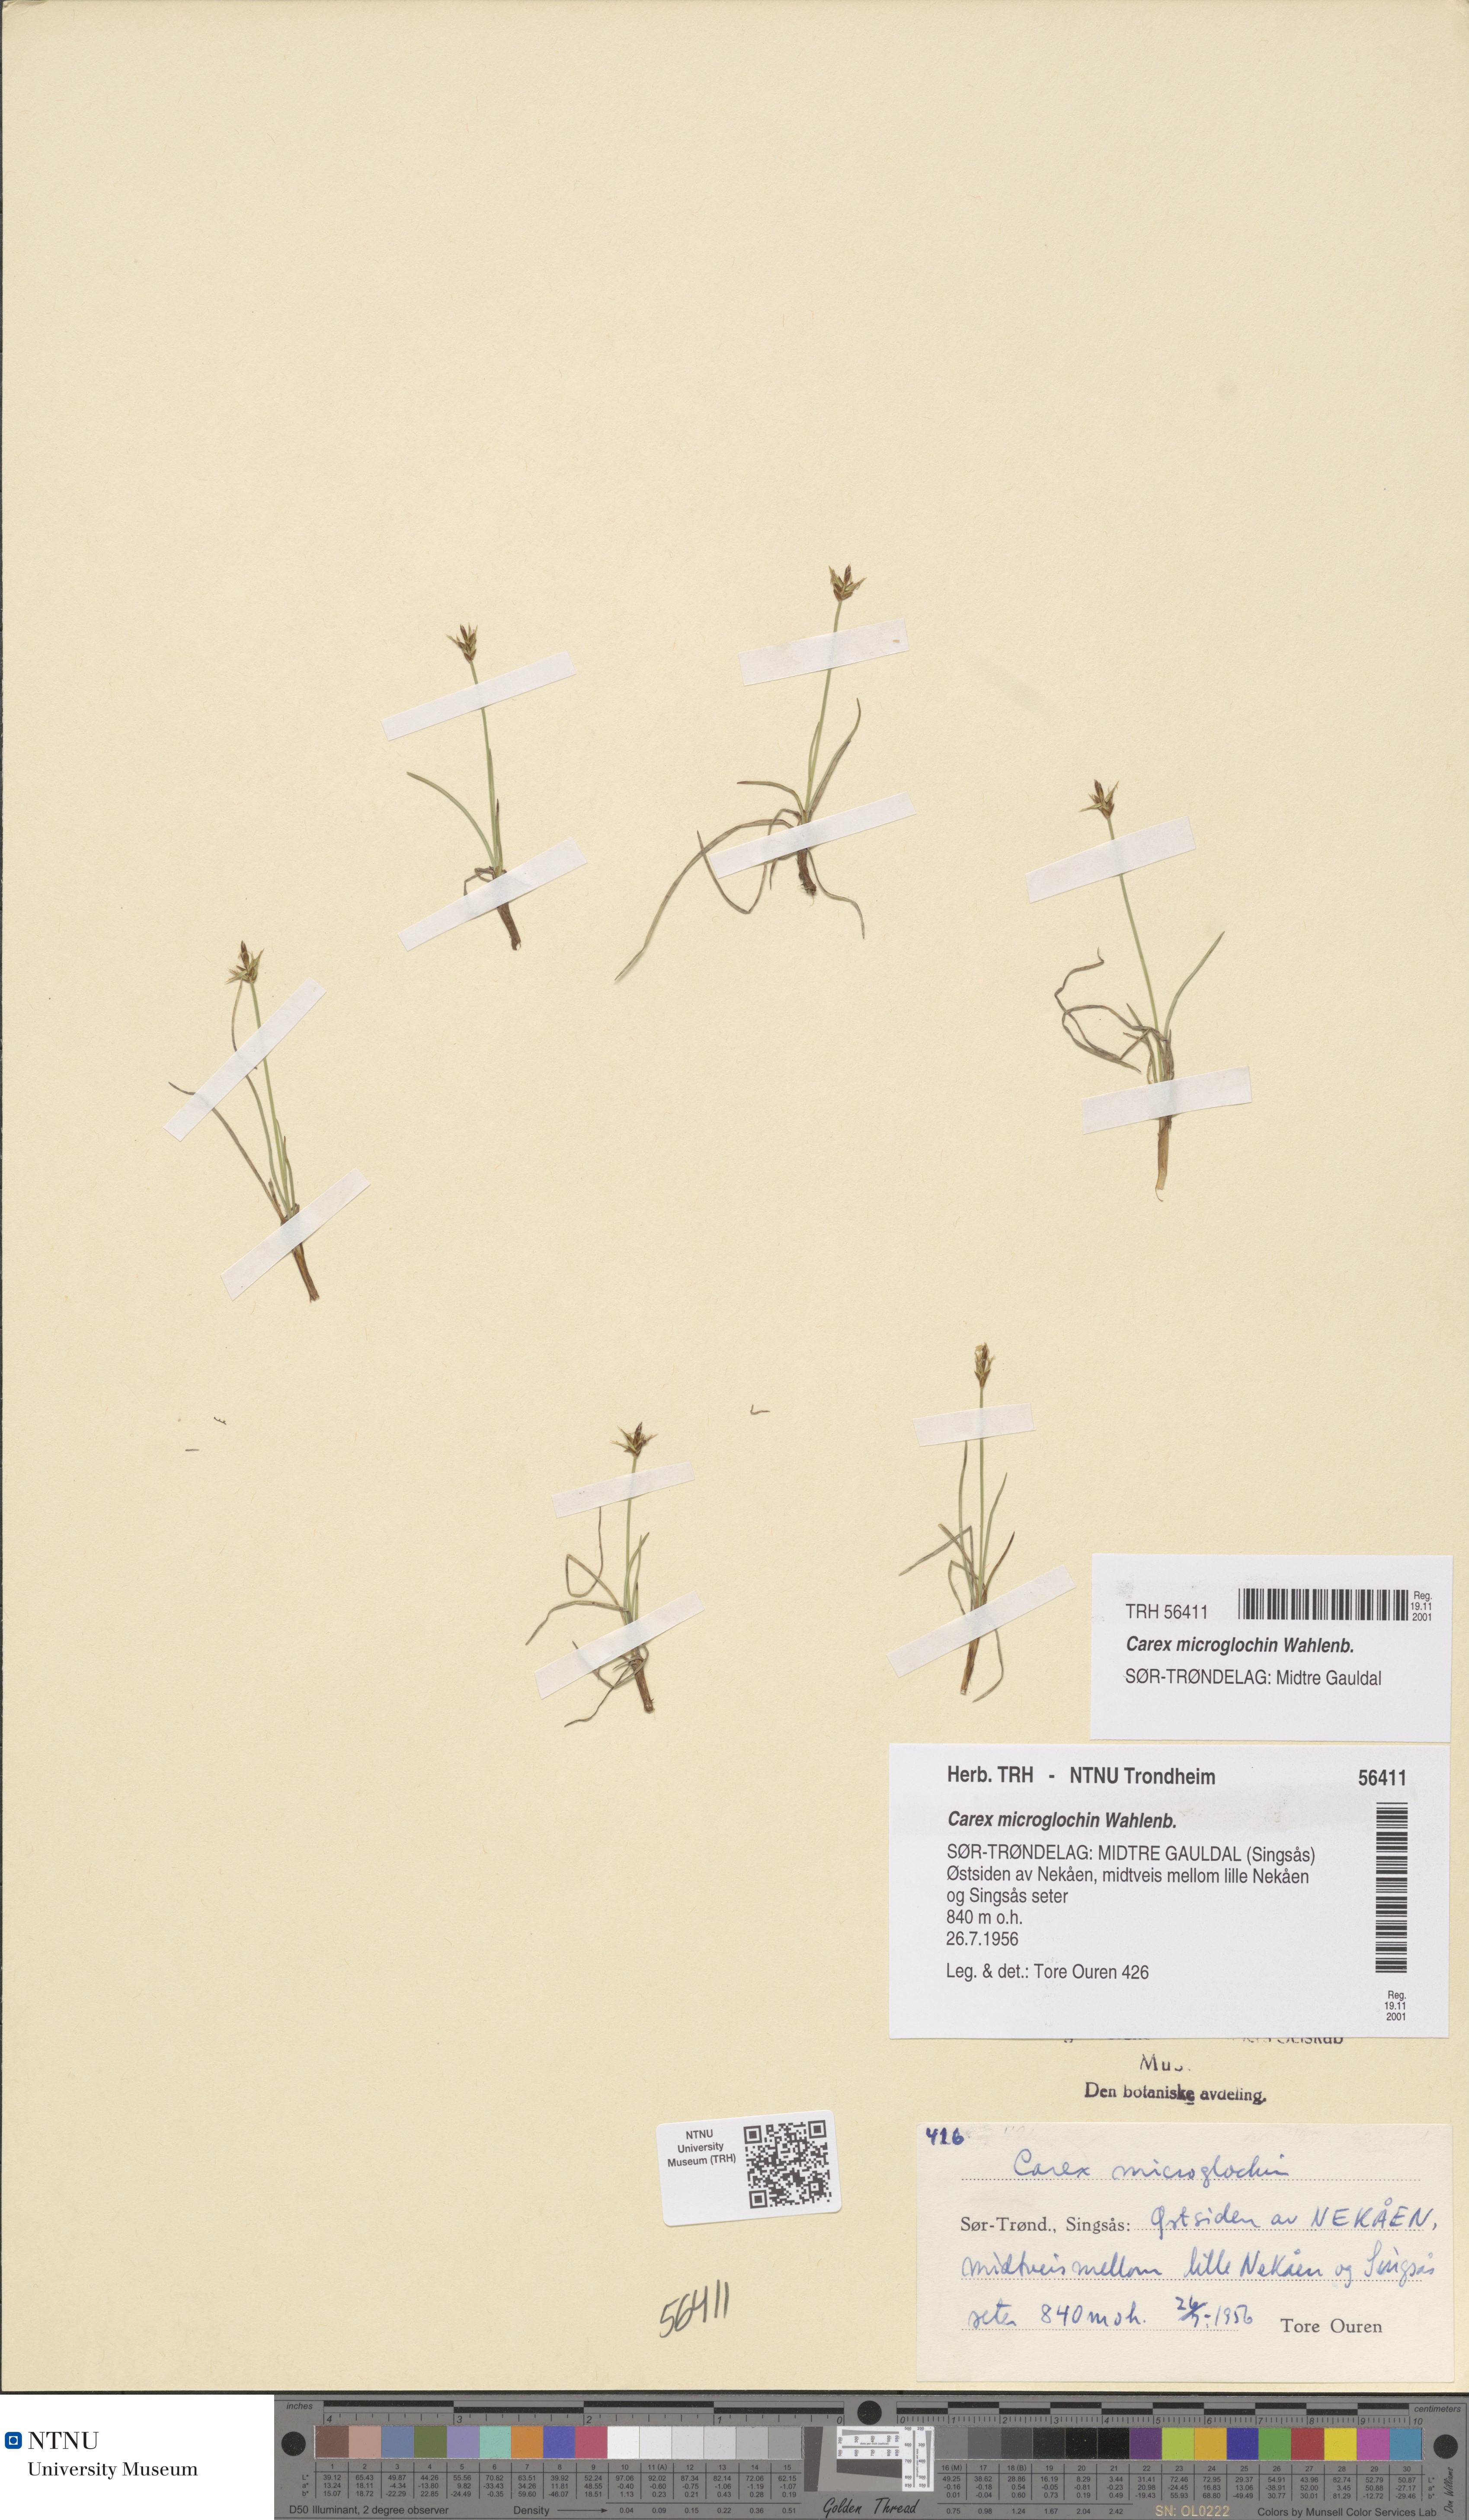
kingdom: Plantae
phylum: Tracheophyta
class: Liliopsida
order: Poales
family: Cyperaceae
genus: Carex
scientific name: Carex microglochin
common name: Bristle sedge
